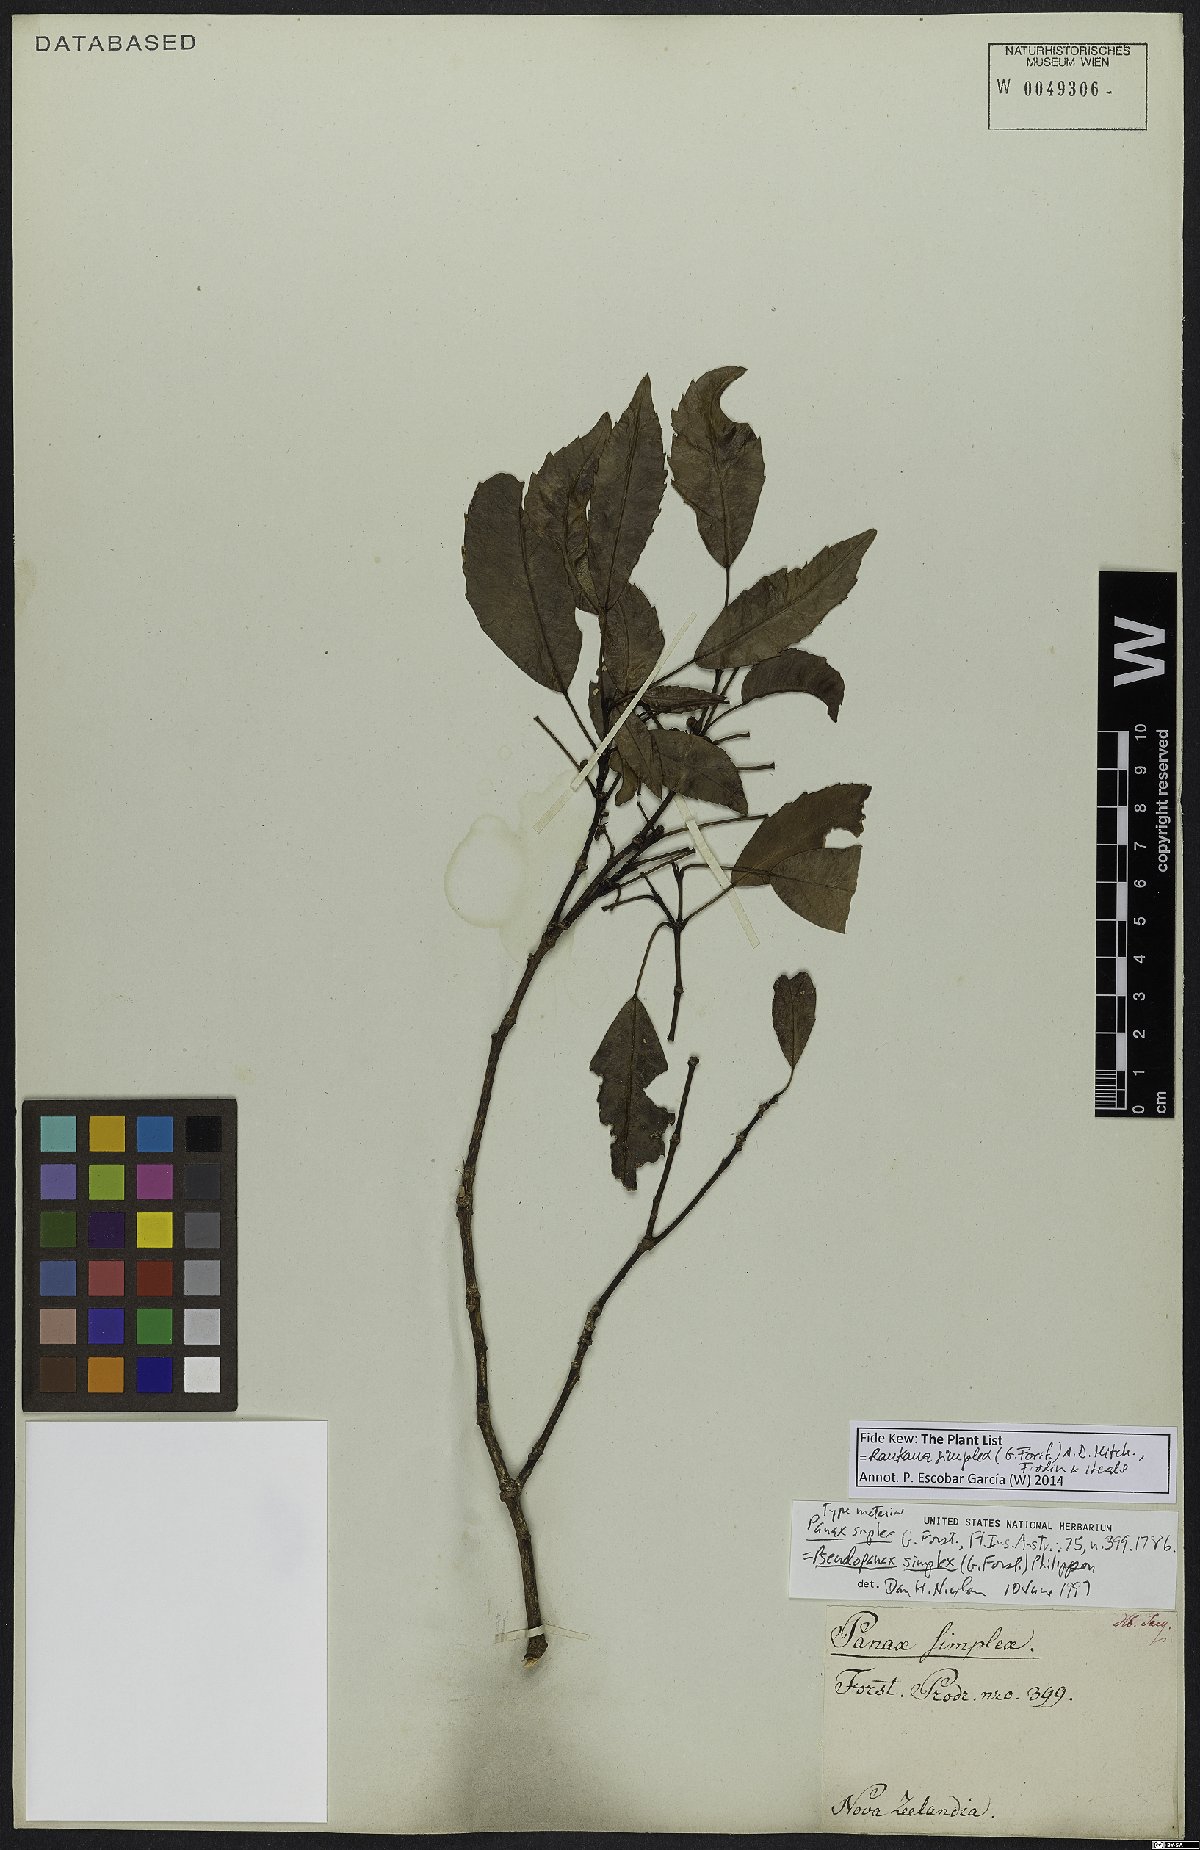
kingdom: Plantae
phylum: Tracheophyta
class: Magnoliopsida
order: Apiales
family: Araliaceae
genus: Raukaua
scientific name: Raukaua simplex
